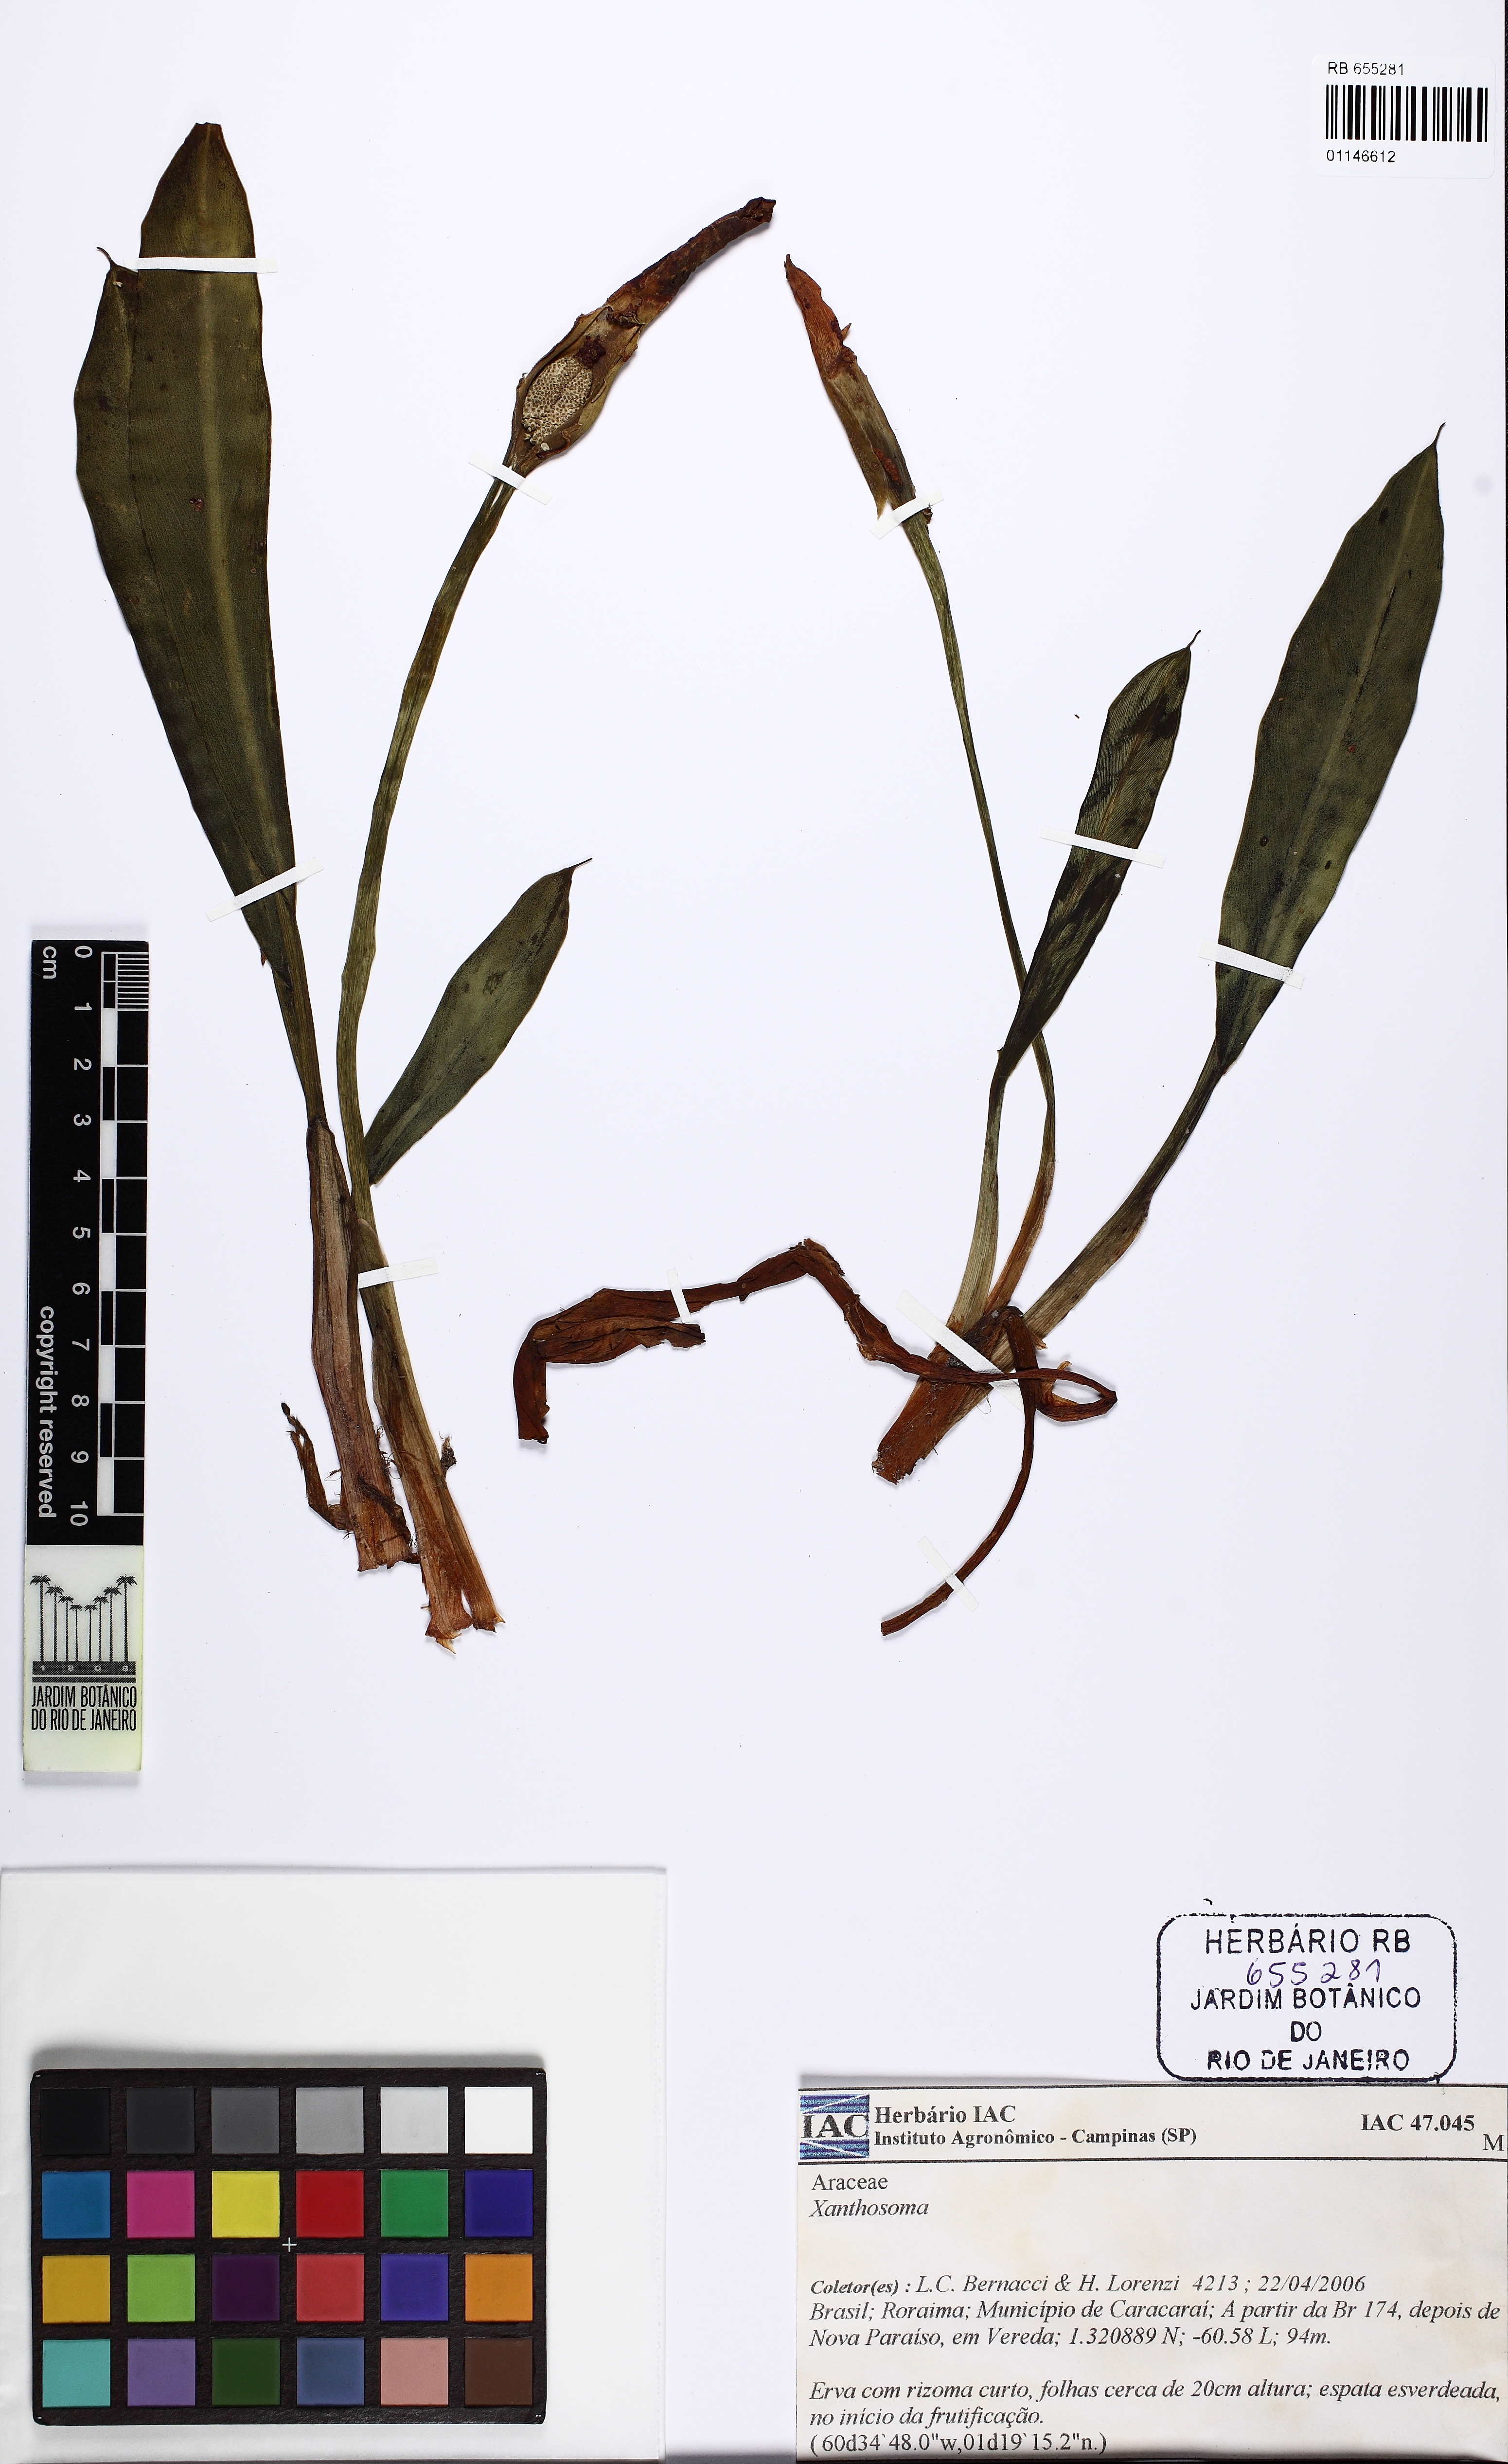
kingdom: Plantae
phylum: Tracheophyta
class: Liliopsida
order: Alismatales
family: Araceae
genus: Philonotion
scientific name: Philonotion spruceanum
